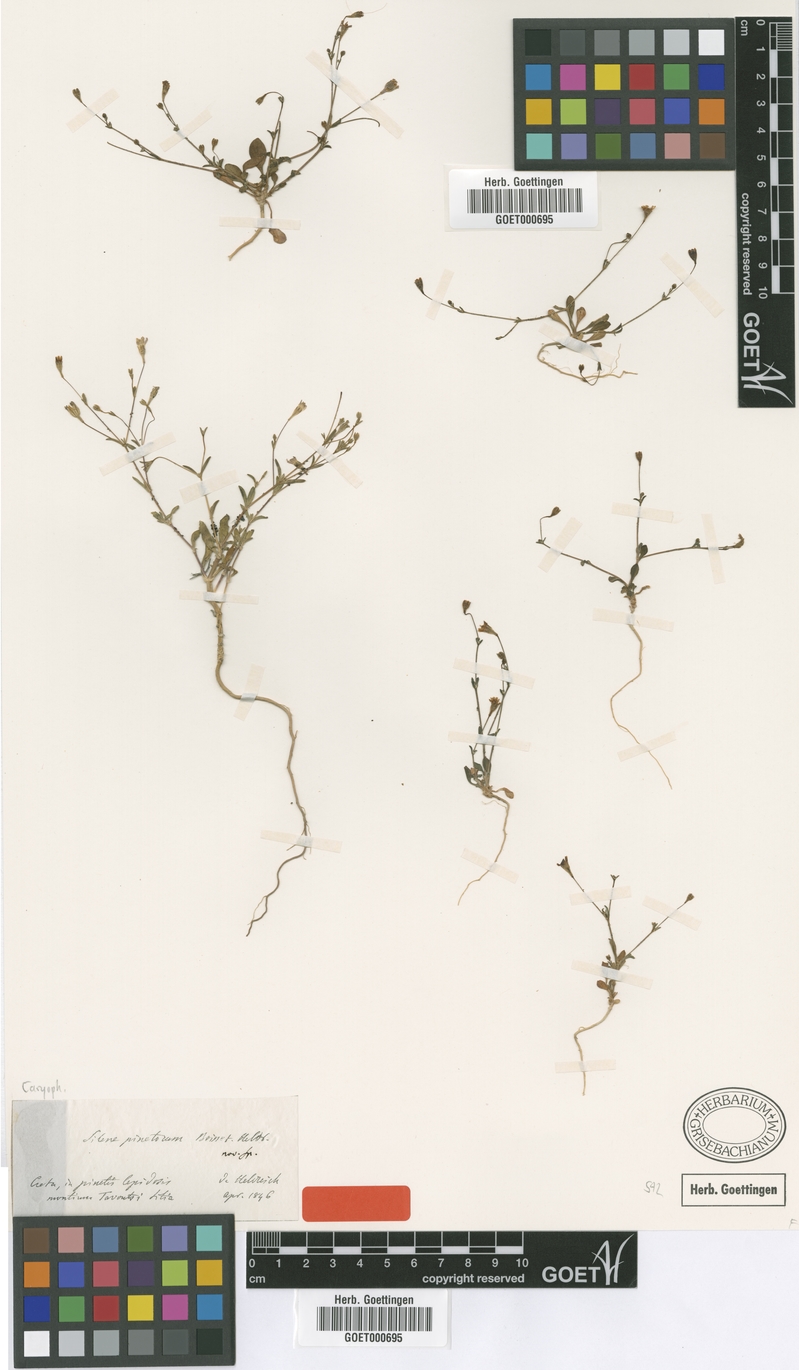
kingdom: Plantae
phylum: Tracheophyta
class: Magnoliopsida
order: Caryophyllales
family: Caryophyllaceae
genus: Silene
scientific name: Silene pinetorum
